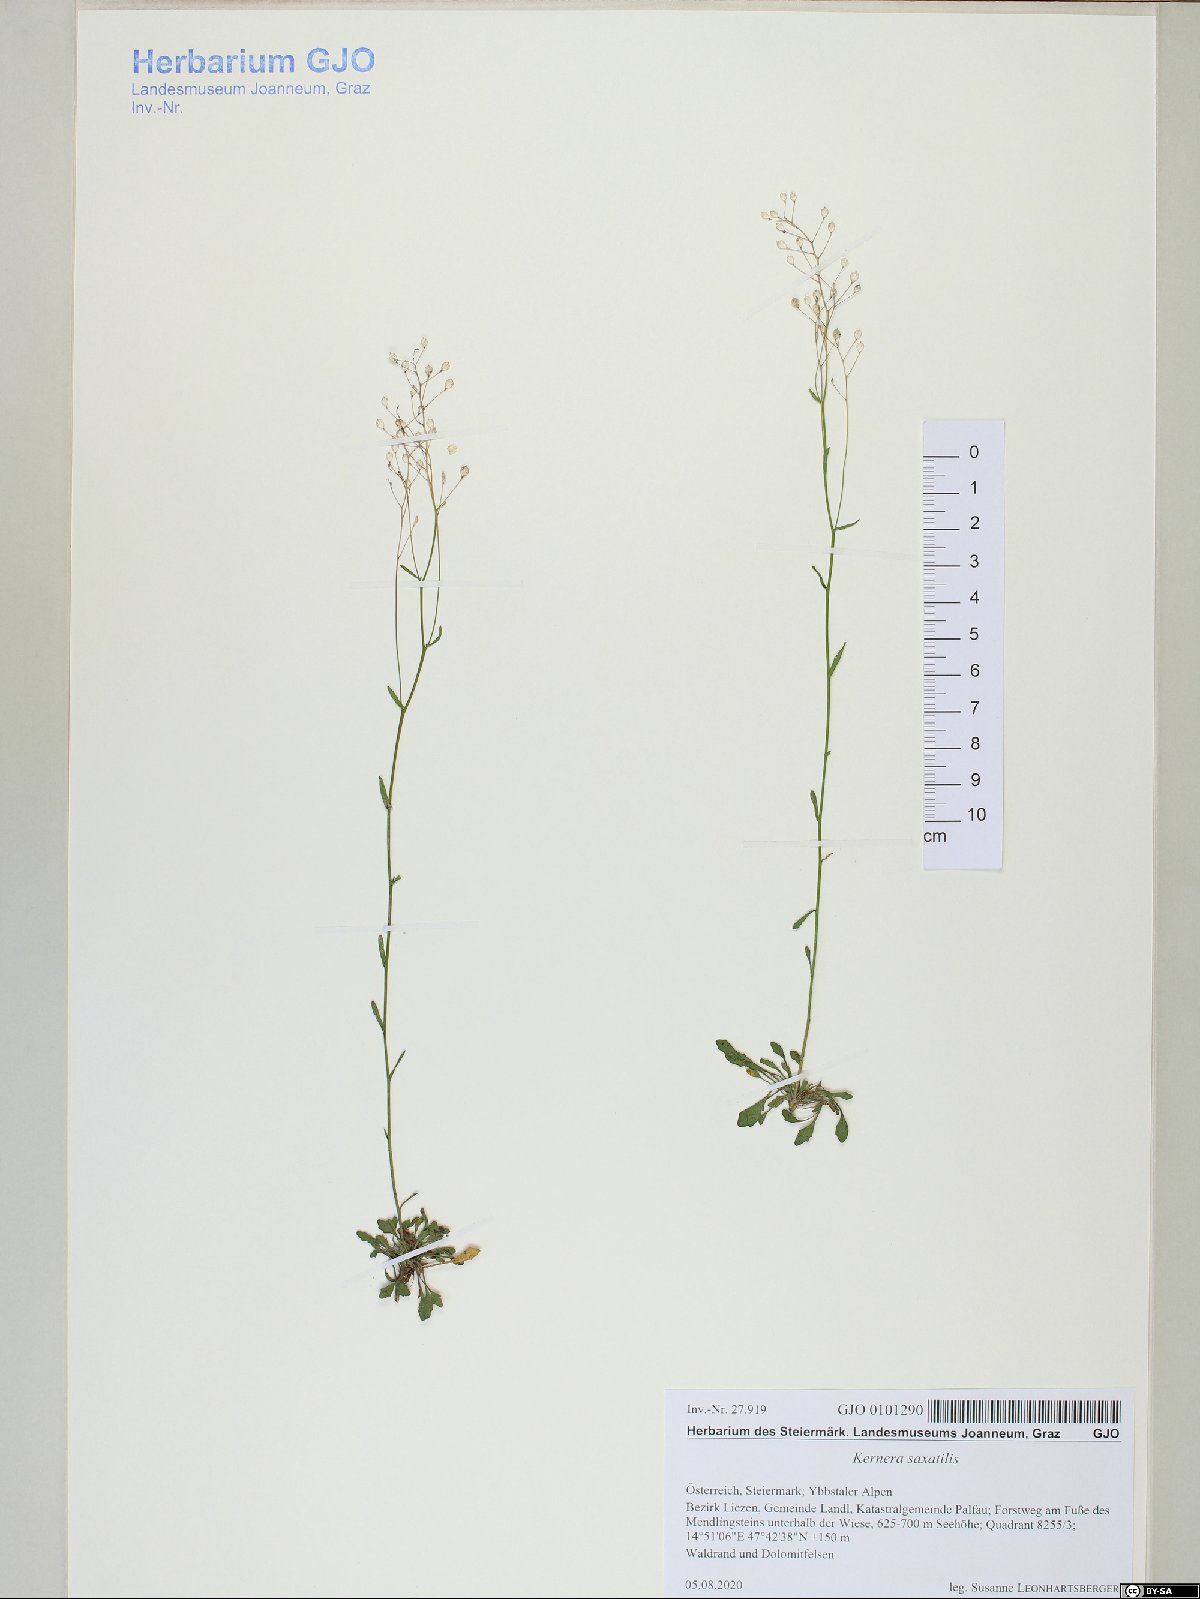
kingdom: Plantae
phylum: Tracheophyta
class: Magnoliopsida
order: Brassicales
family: Brassicaceae
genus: Kernera
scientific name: Kernera saxatilis
